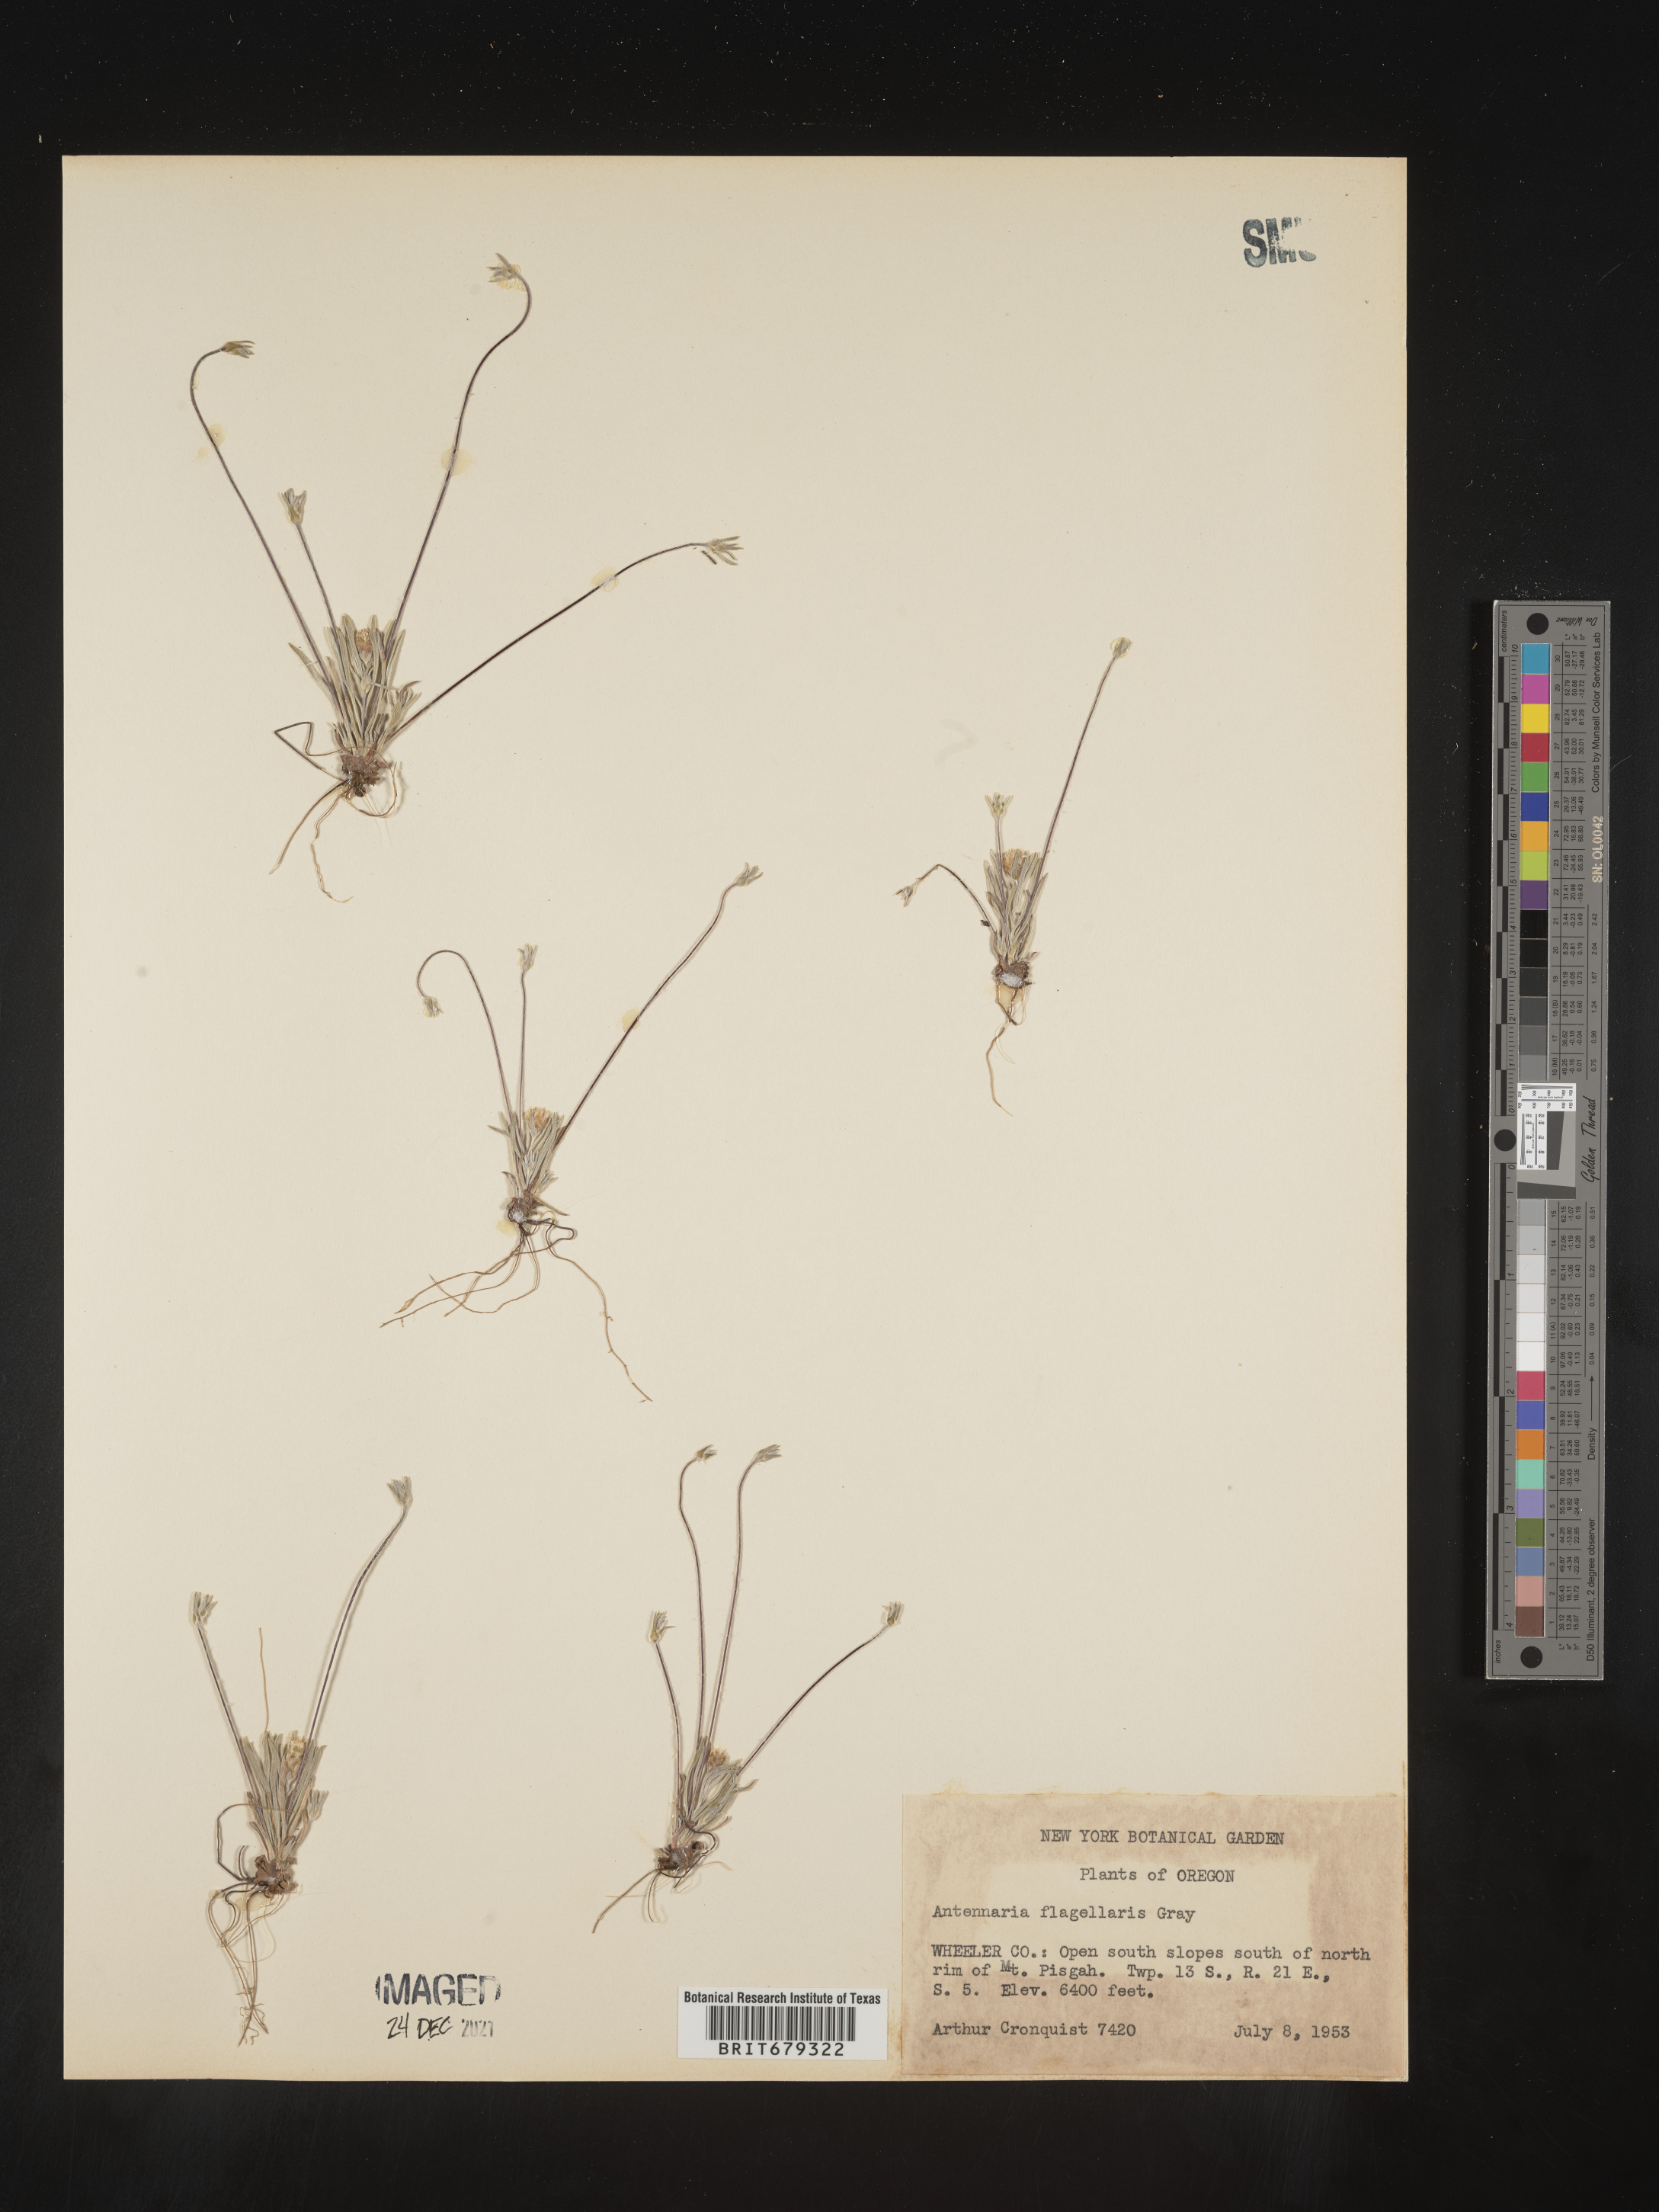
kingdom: Plantae
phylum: Tracheophyta
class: Magnoliopsida
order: Asterales
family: Asteraceae
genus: Antennaria
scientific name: Antennaria flagellaris
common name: Whip pussytoes
